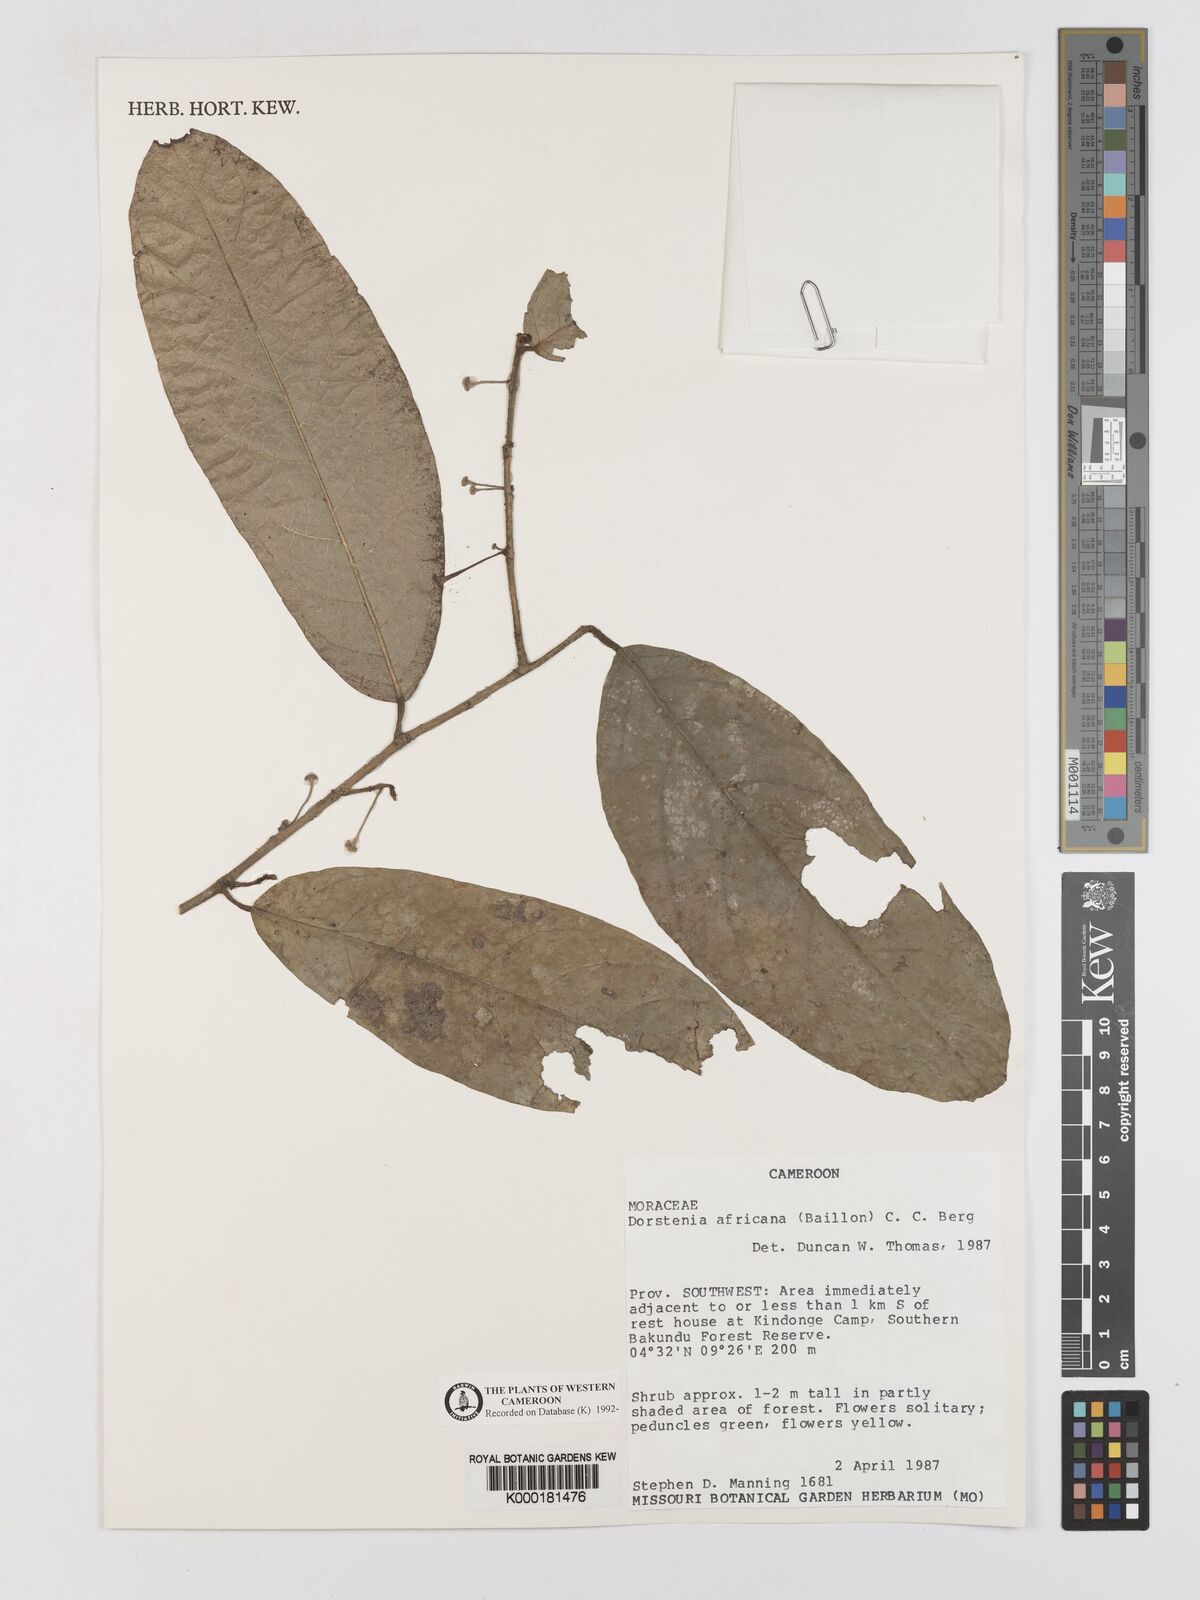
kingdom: Plantae
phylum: Tracheophyta
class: Magnoliopsida
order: Rosales
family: Moraceae
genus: Dorstenia
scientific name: Dorstenia africana
